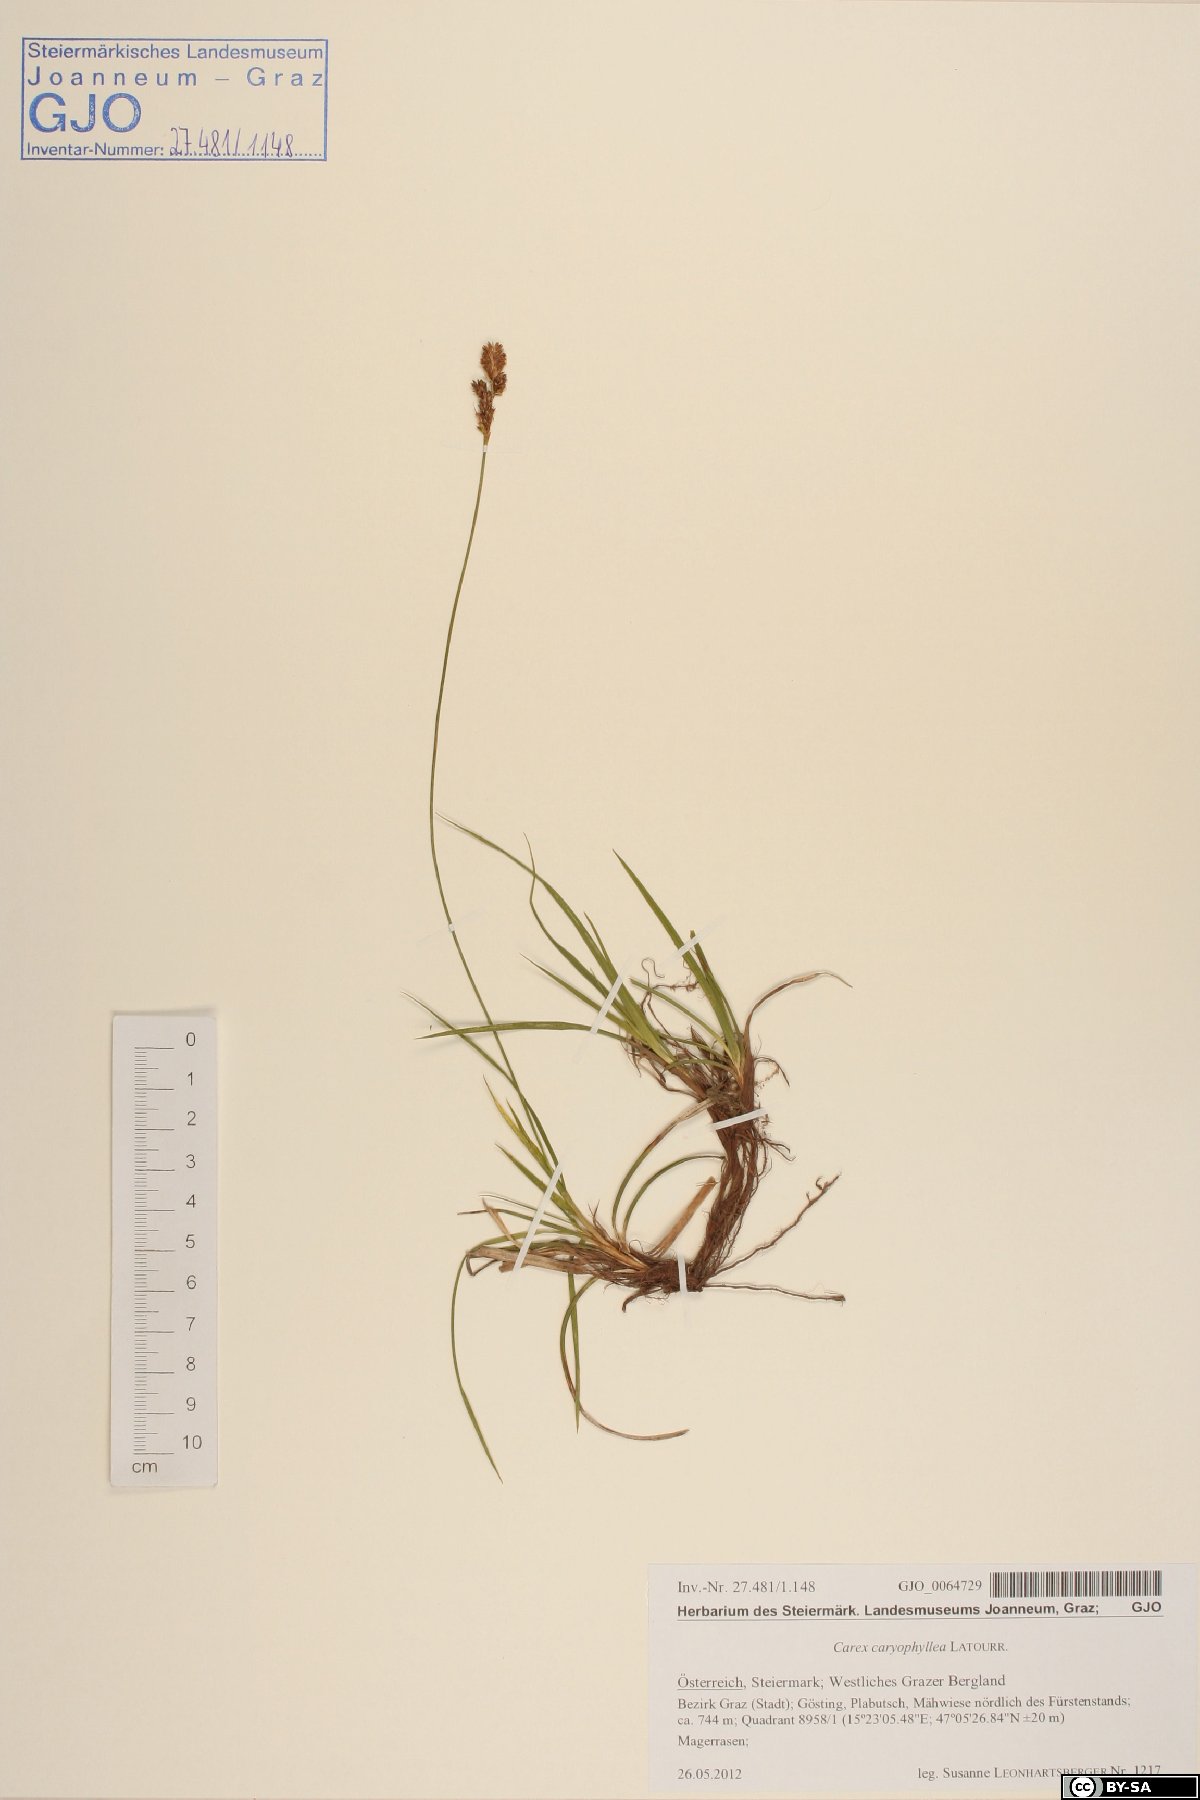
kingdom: Plantae
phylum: Tracheophyta
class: Liliopsida
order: Poales
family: Cyperaceae
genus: Carex
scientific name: Carex caryophyllea
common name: Spring sedge
